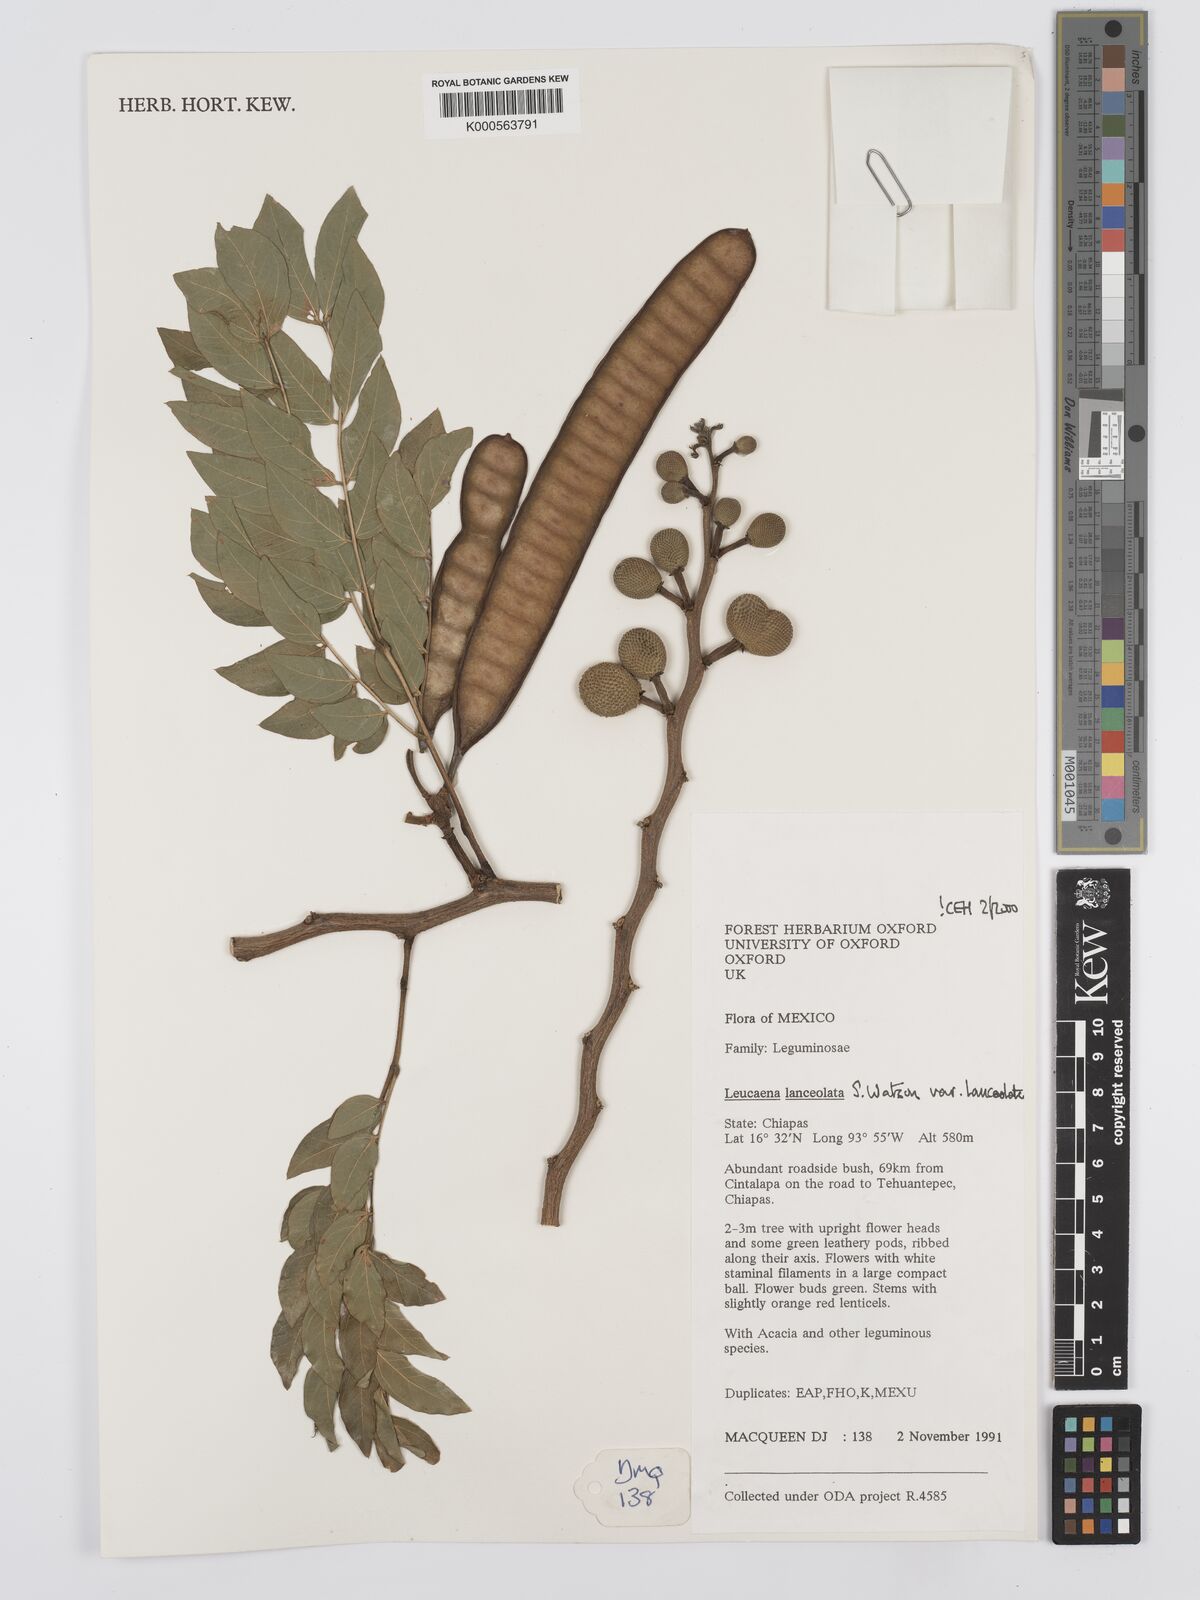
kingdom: Plantae
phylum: Tracheophyta
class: Magnoliopsida
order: Fabales
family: Fabaceae
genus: Leucaena
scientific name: Leucaena lanceolata
